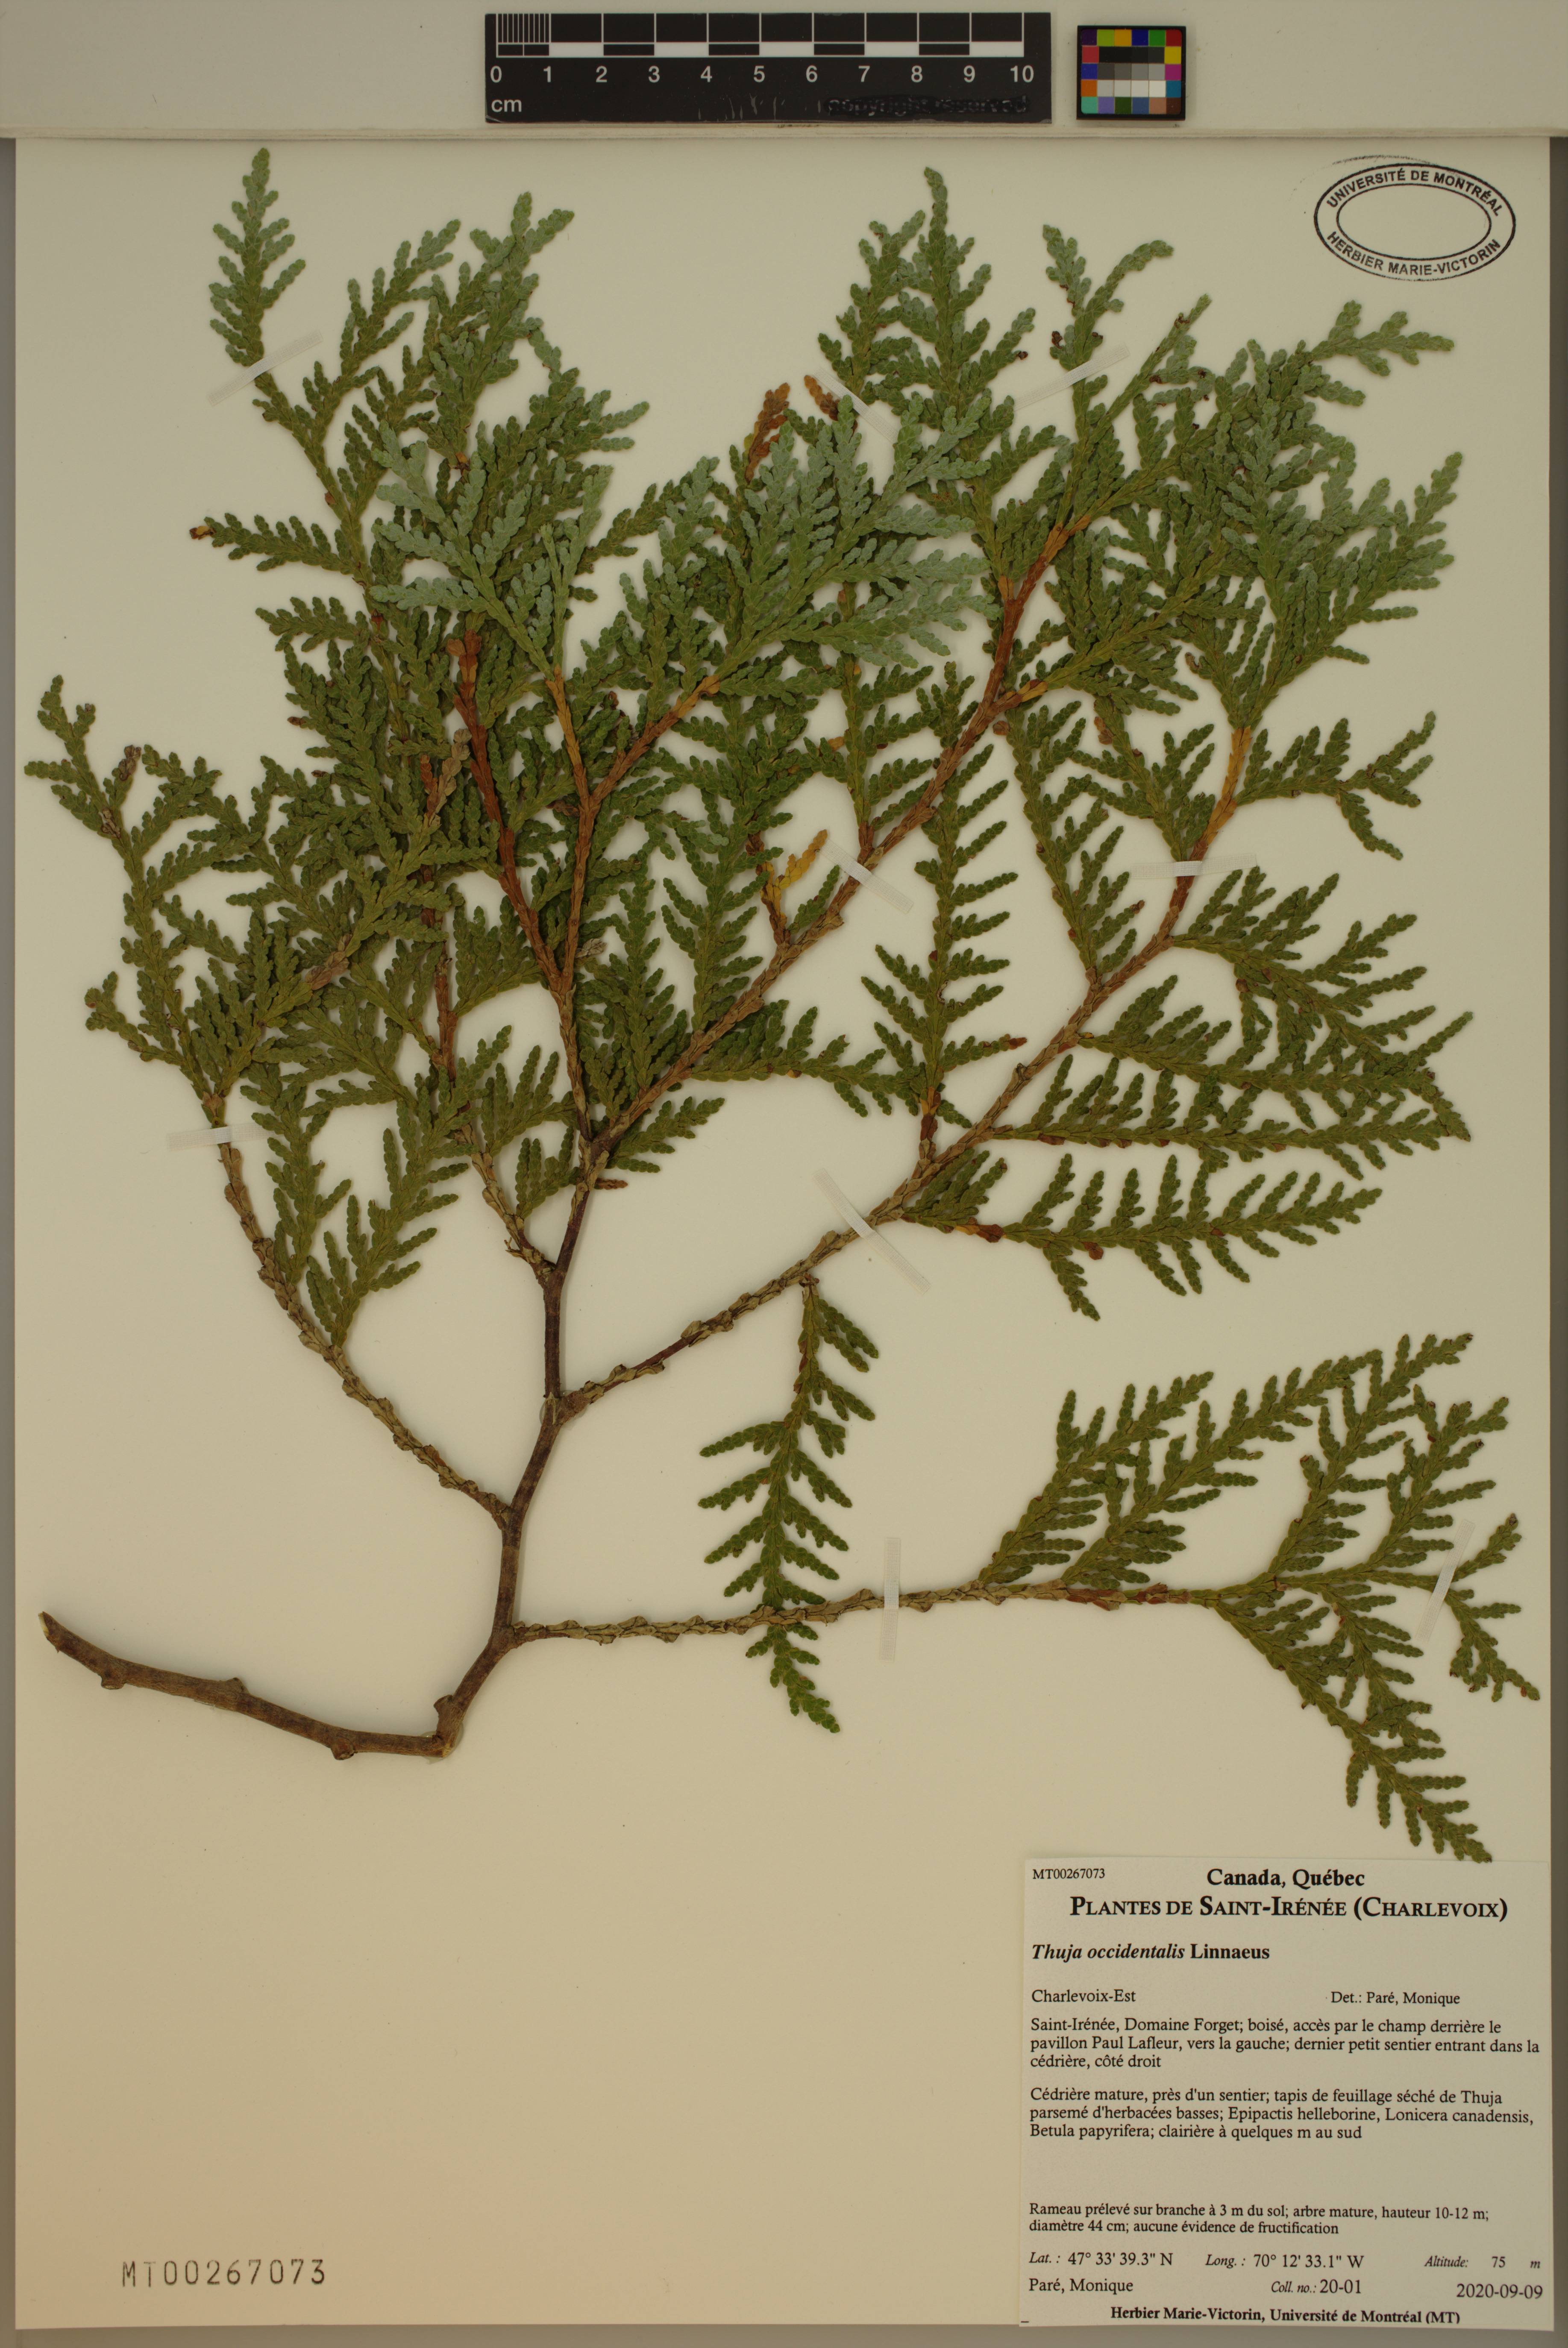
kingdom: Plantae
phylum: Tracheophyta
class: Pinopsida
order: Pinales
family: Cupressaceae
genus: Thuja
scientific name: Thuja occidentalis
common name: Northern white-cedar
